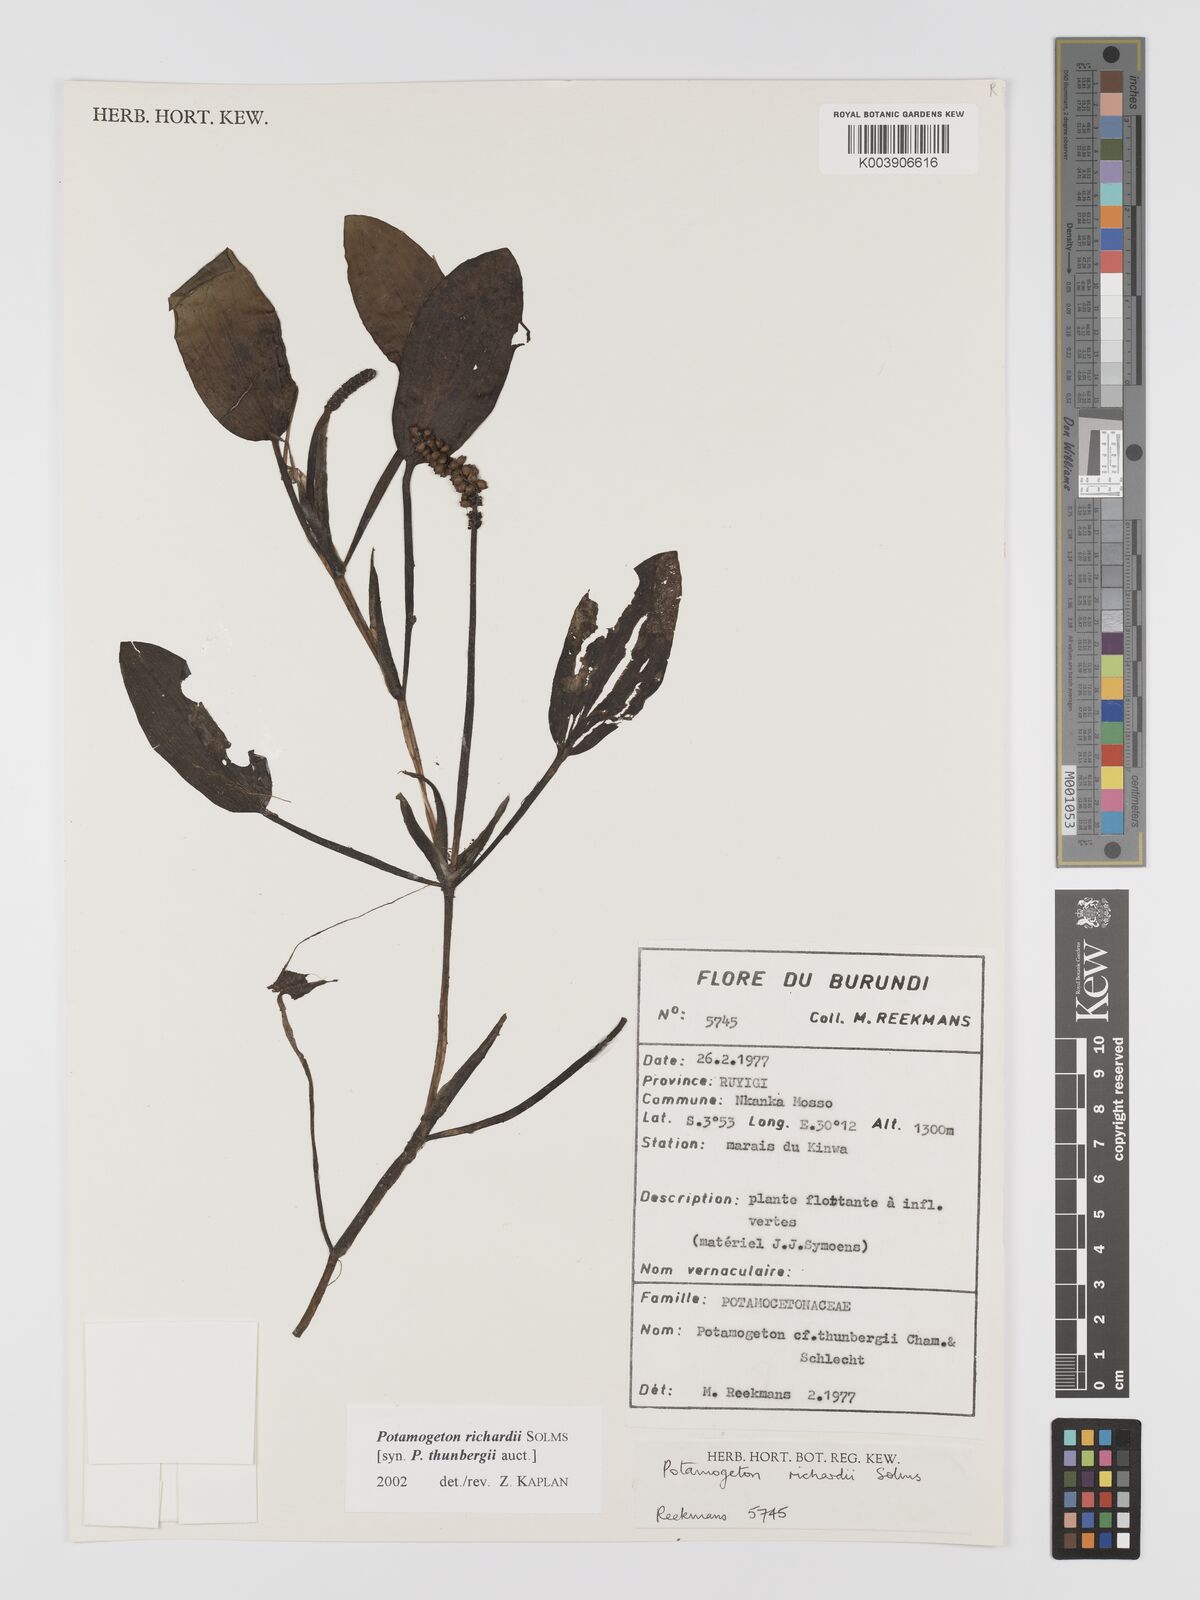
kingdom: Plantae
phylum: Tracheophyta
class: Liliopsida
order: Alismatales
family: Potamogetonaceae
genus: Potamogeton
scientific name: Potamogeton nodosus
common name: Loddon pondweed
